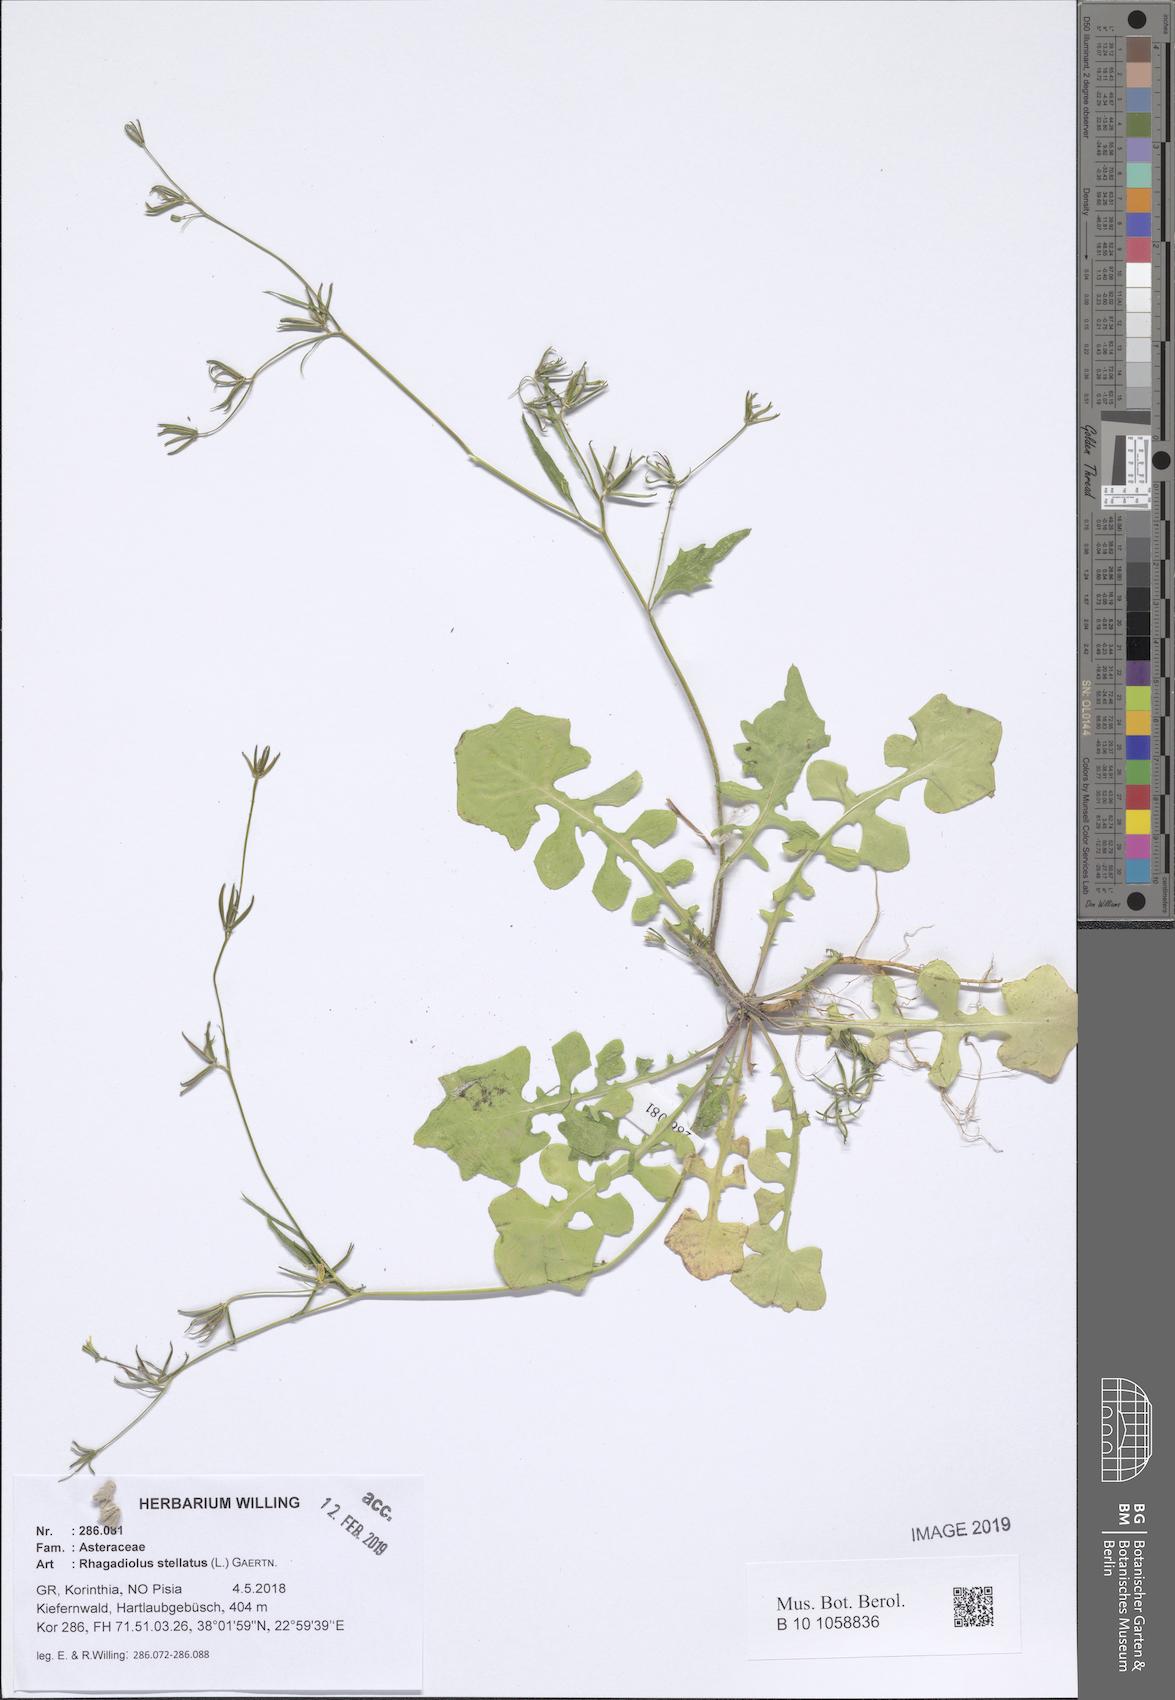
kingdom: Plantae
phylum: Tracheophyta
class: Magnoliopsida
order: Asterales
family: Asteraceae
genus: Rhagadiolus
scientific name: Rhagadiolus stellatus
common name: Star hawkbit
